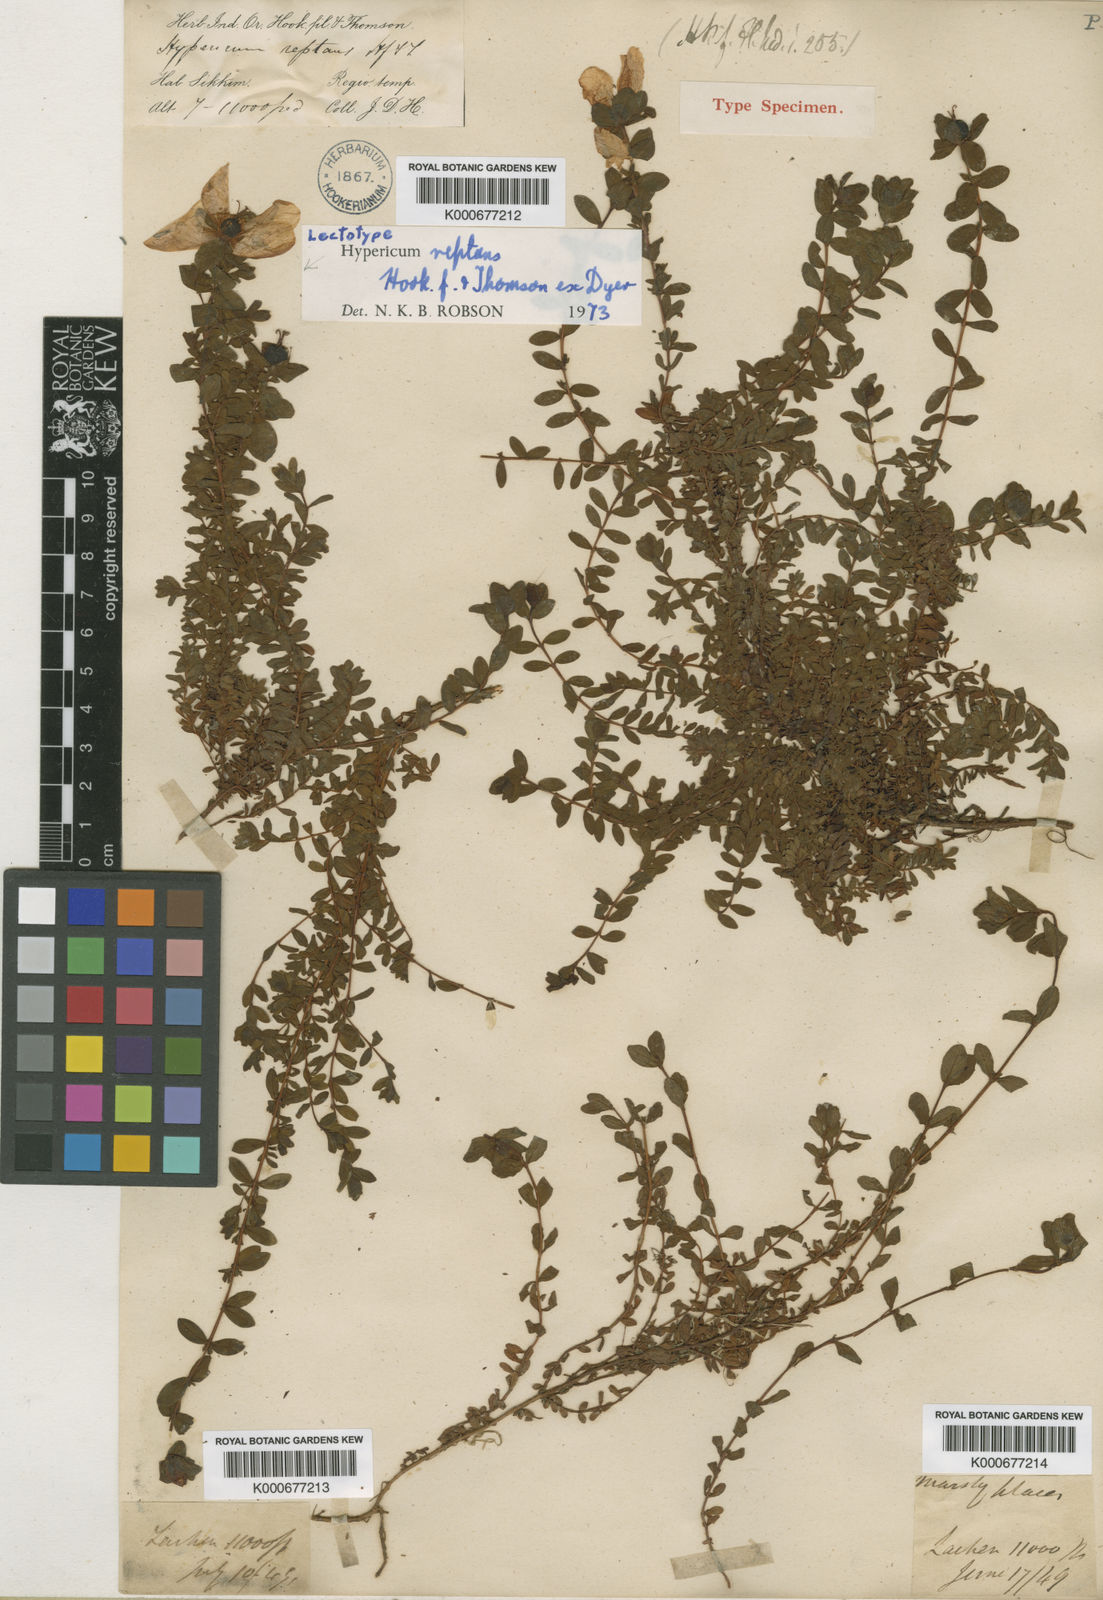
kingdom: Plantae
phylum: Tracheophyta
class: Magnoliopsida
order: Malpighiales
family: Hypericaceae
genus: Hypericum
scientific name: Hypericum reptans
